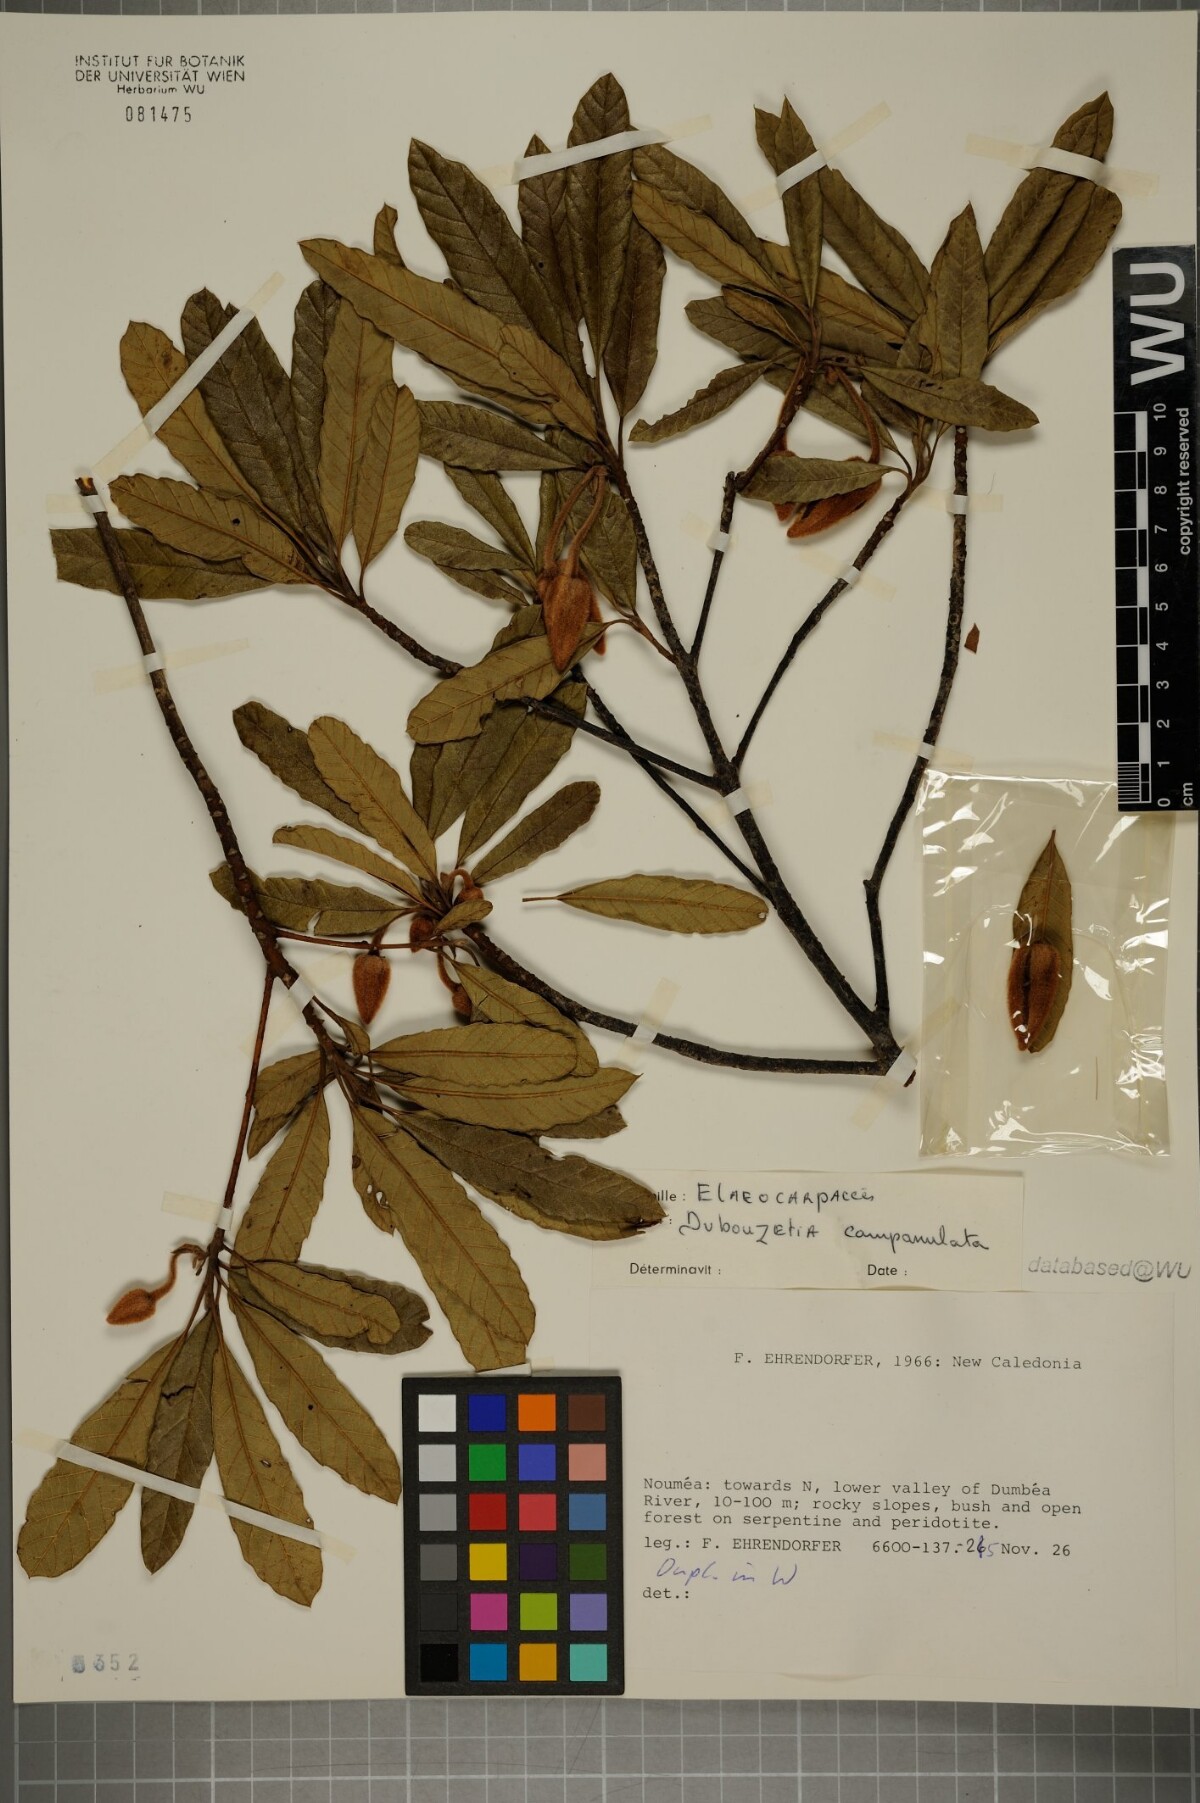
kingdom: Plantae
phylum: Tracheophyta
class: Magnoliopsida
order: Oxalidales
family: Elaeocarpaceae
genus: Dubouzetia
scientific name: Dubouzetia campanulata
